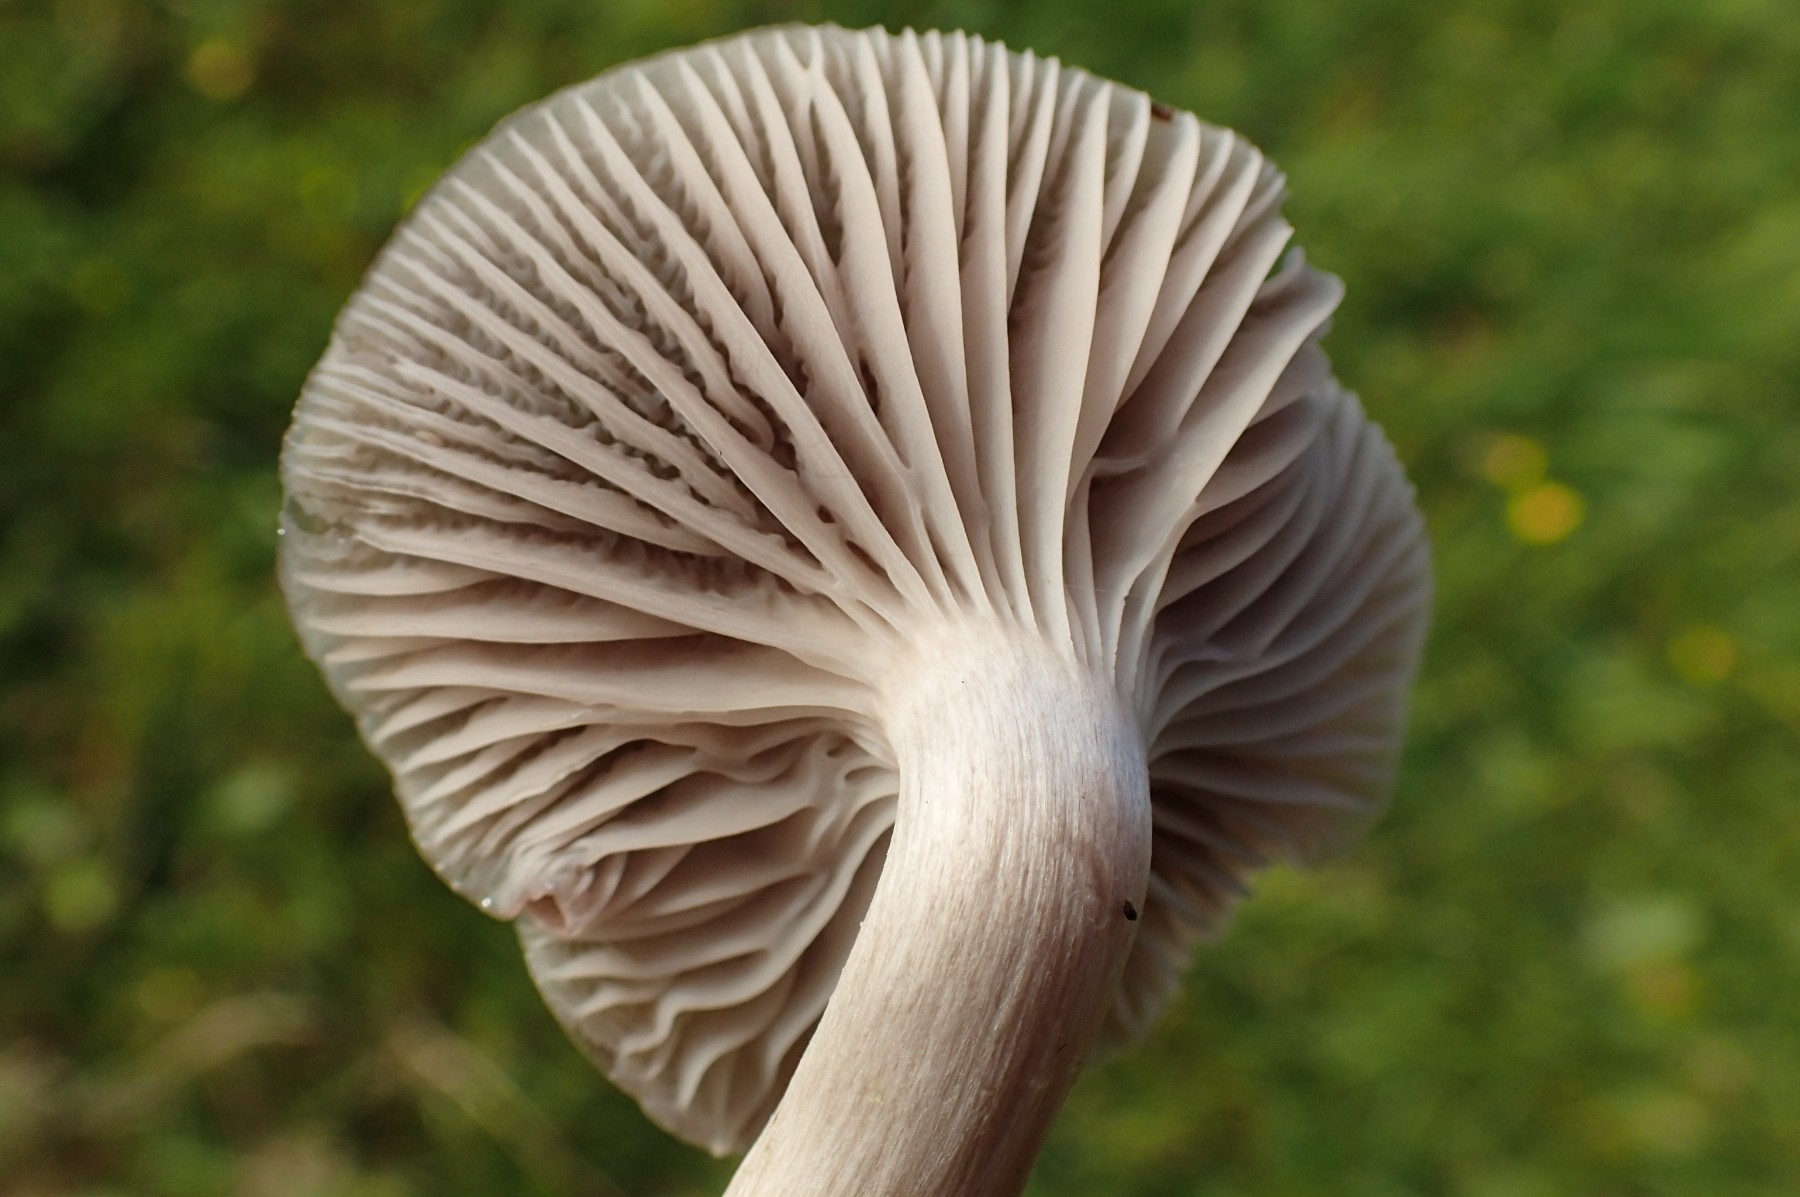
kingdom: Fungi
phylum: Basidiomycota
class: Agaricomycetes
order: Agaricales
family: Hygrophoraceae
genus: Cuphophyllus
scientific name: Cuphophyllus flavipes
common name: gulfodet vokshat
